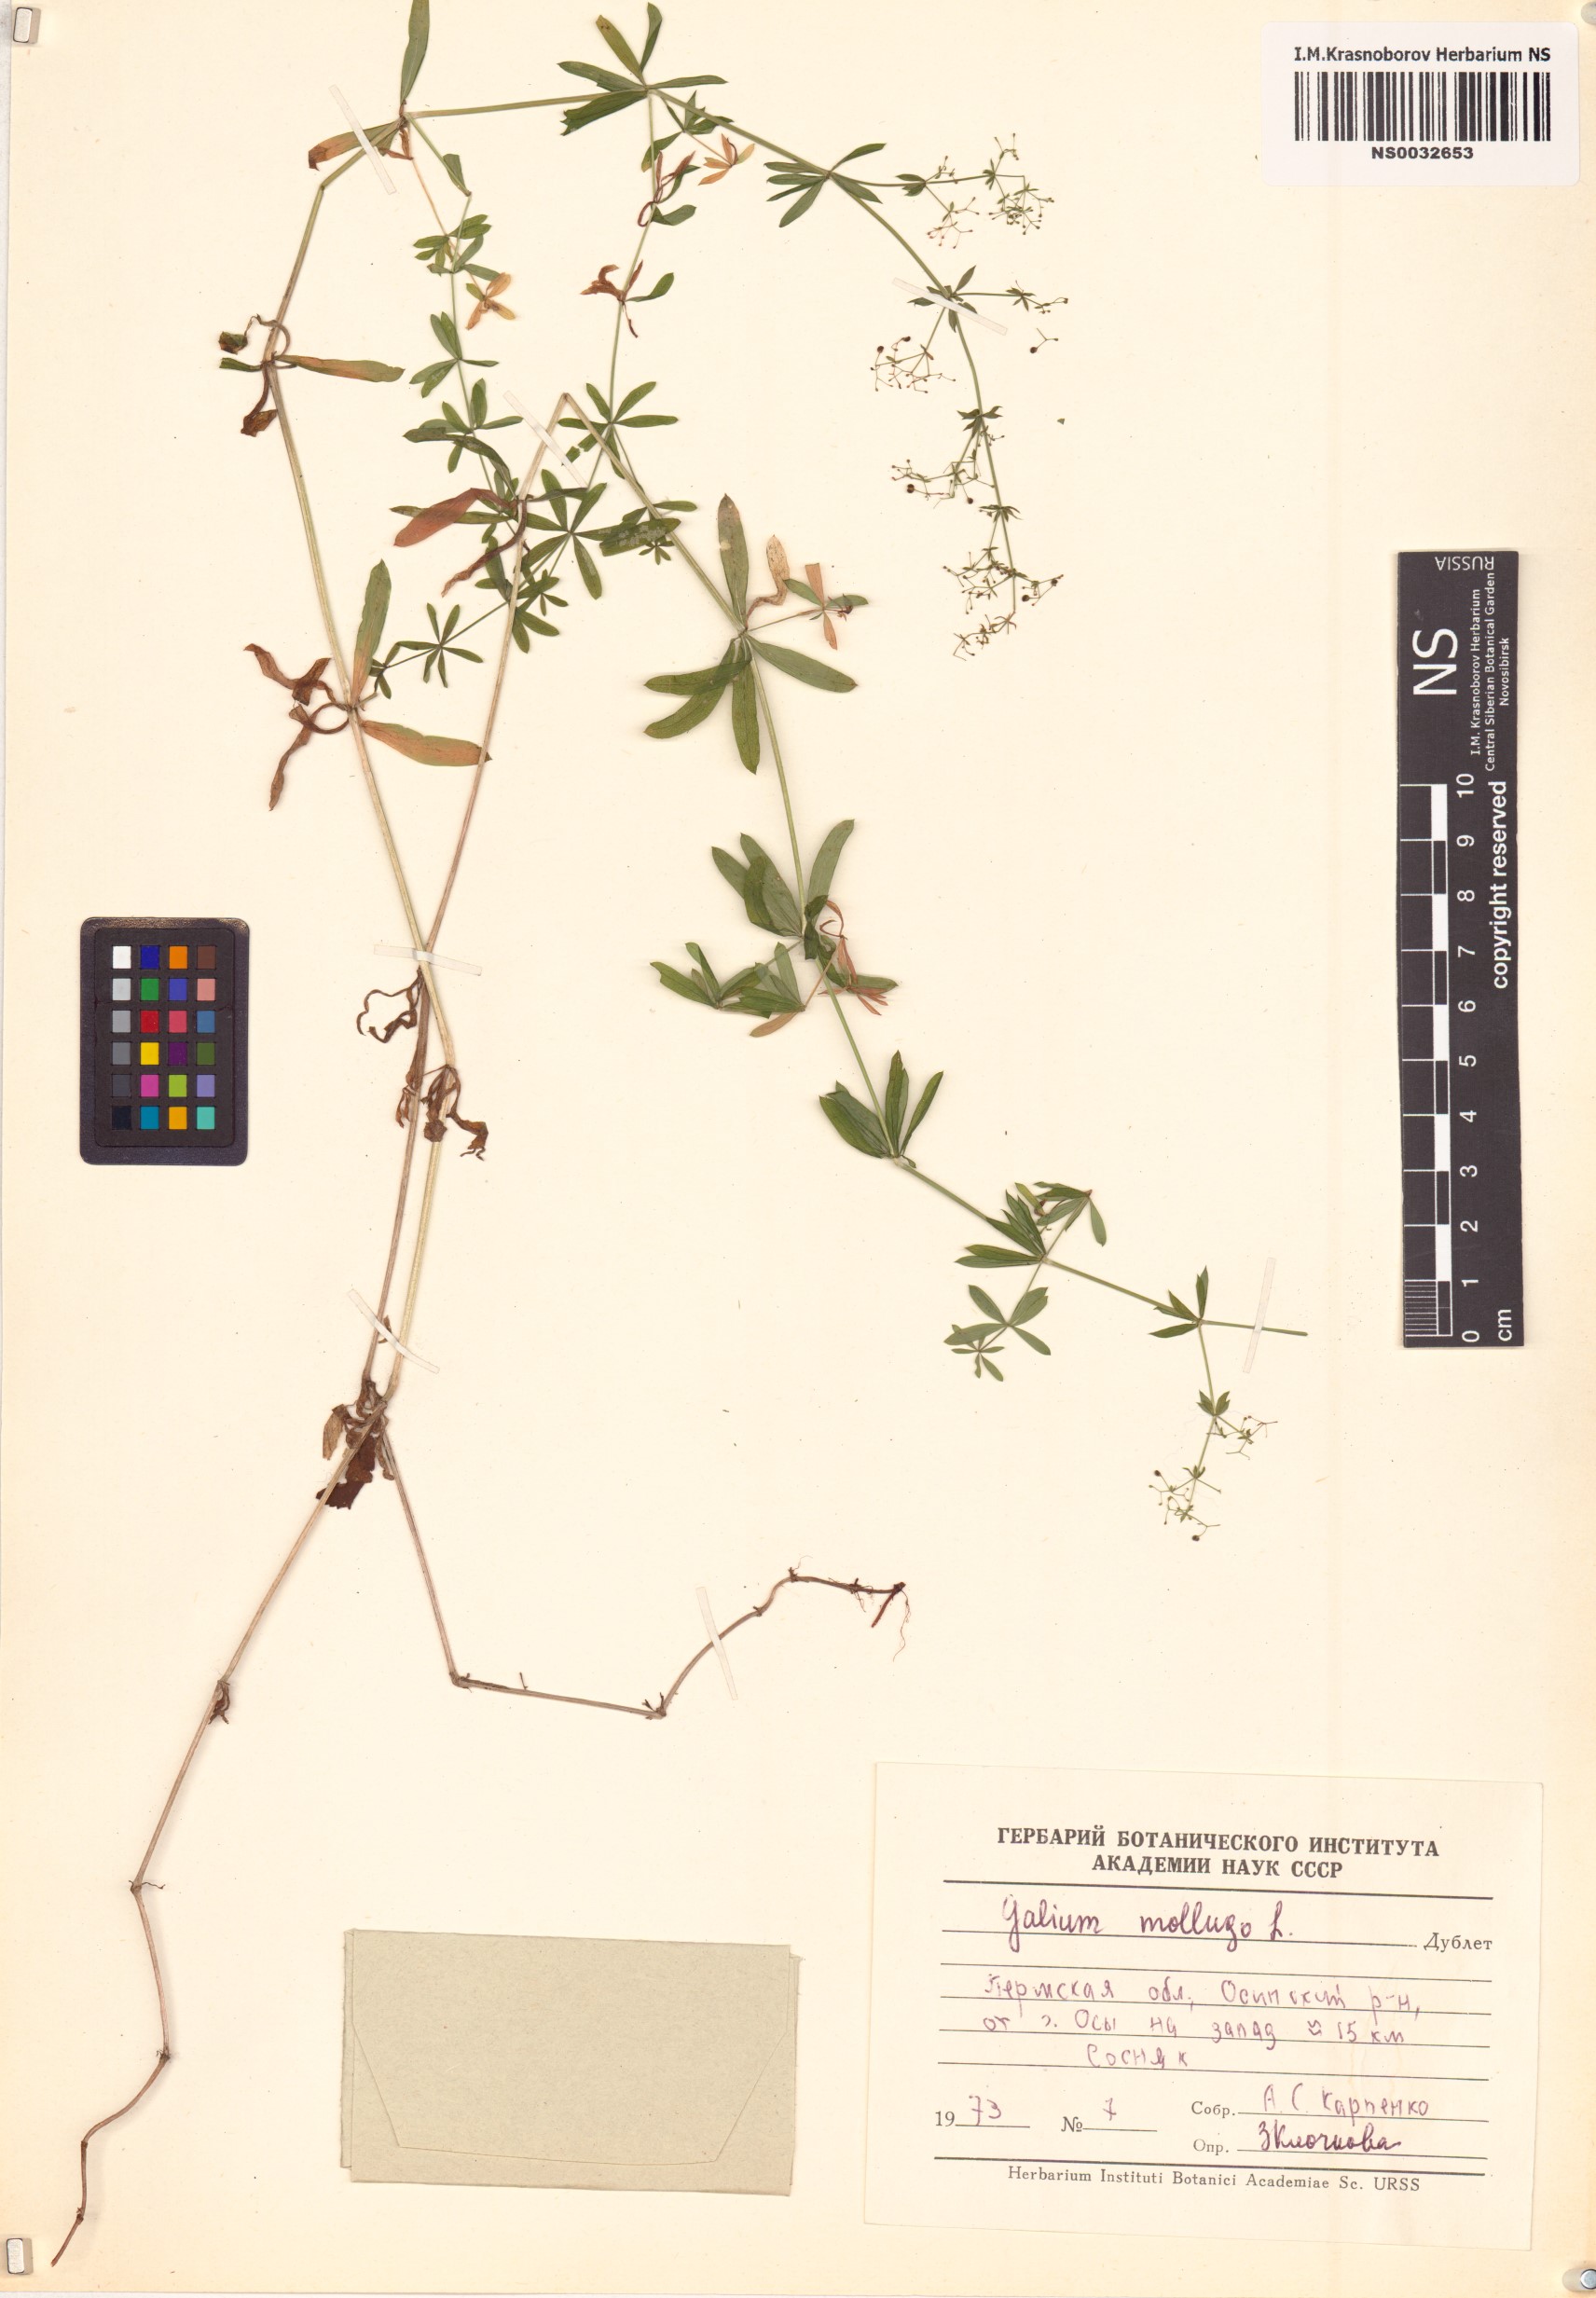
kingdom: Plantae
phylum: Tracheophyta
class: Magnoliopsida
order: Gentianales
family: Rubiaceae
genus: Galium
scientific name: Galium mollugo
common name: Hedge bedstraw
